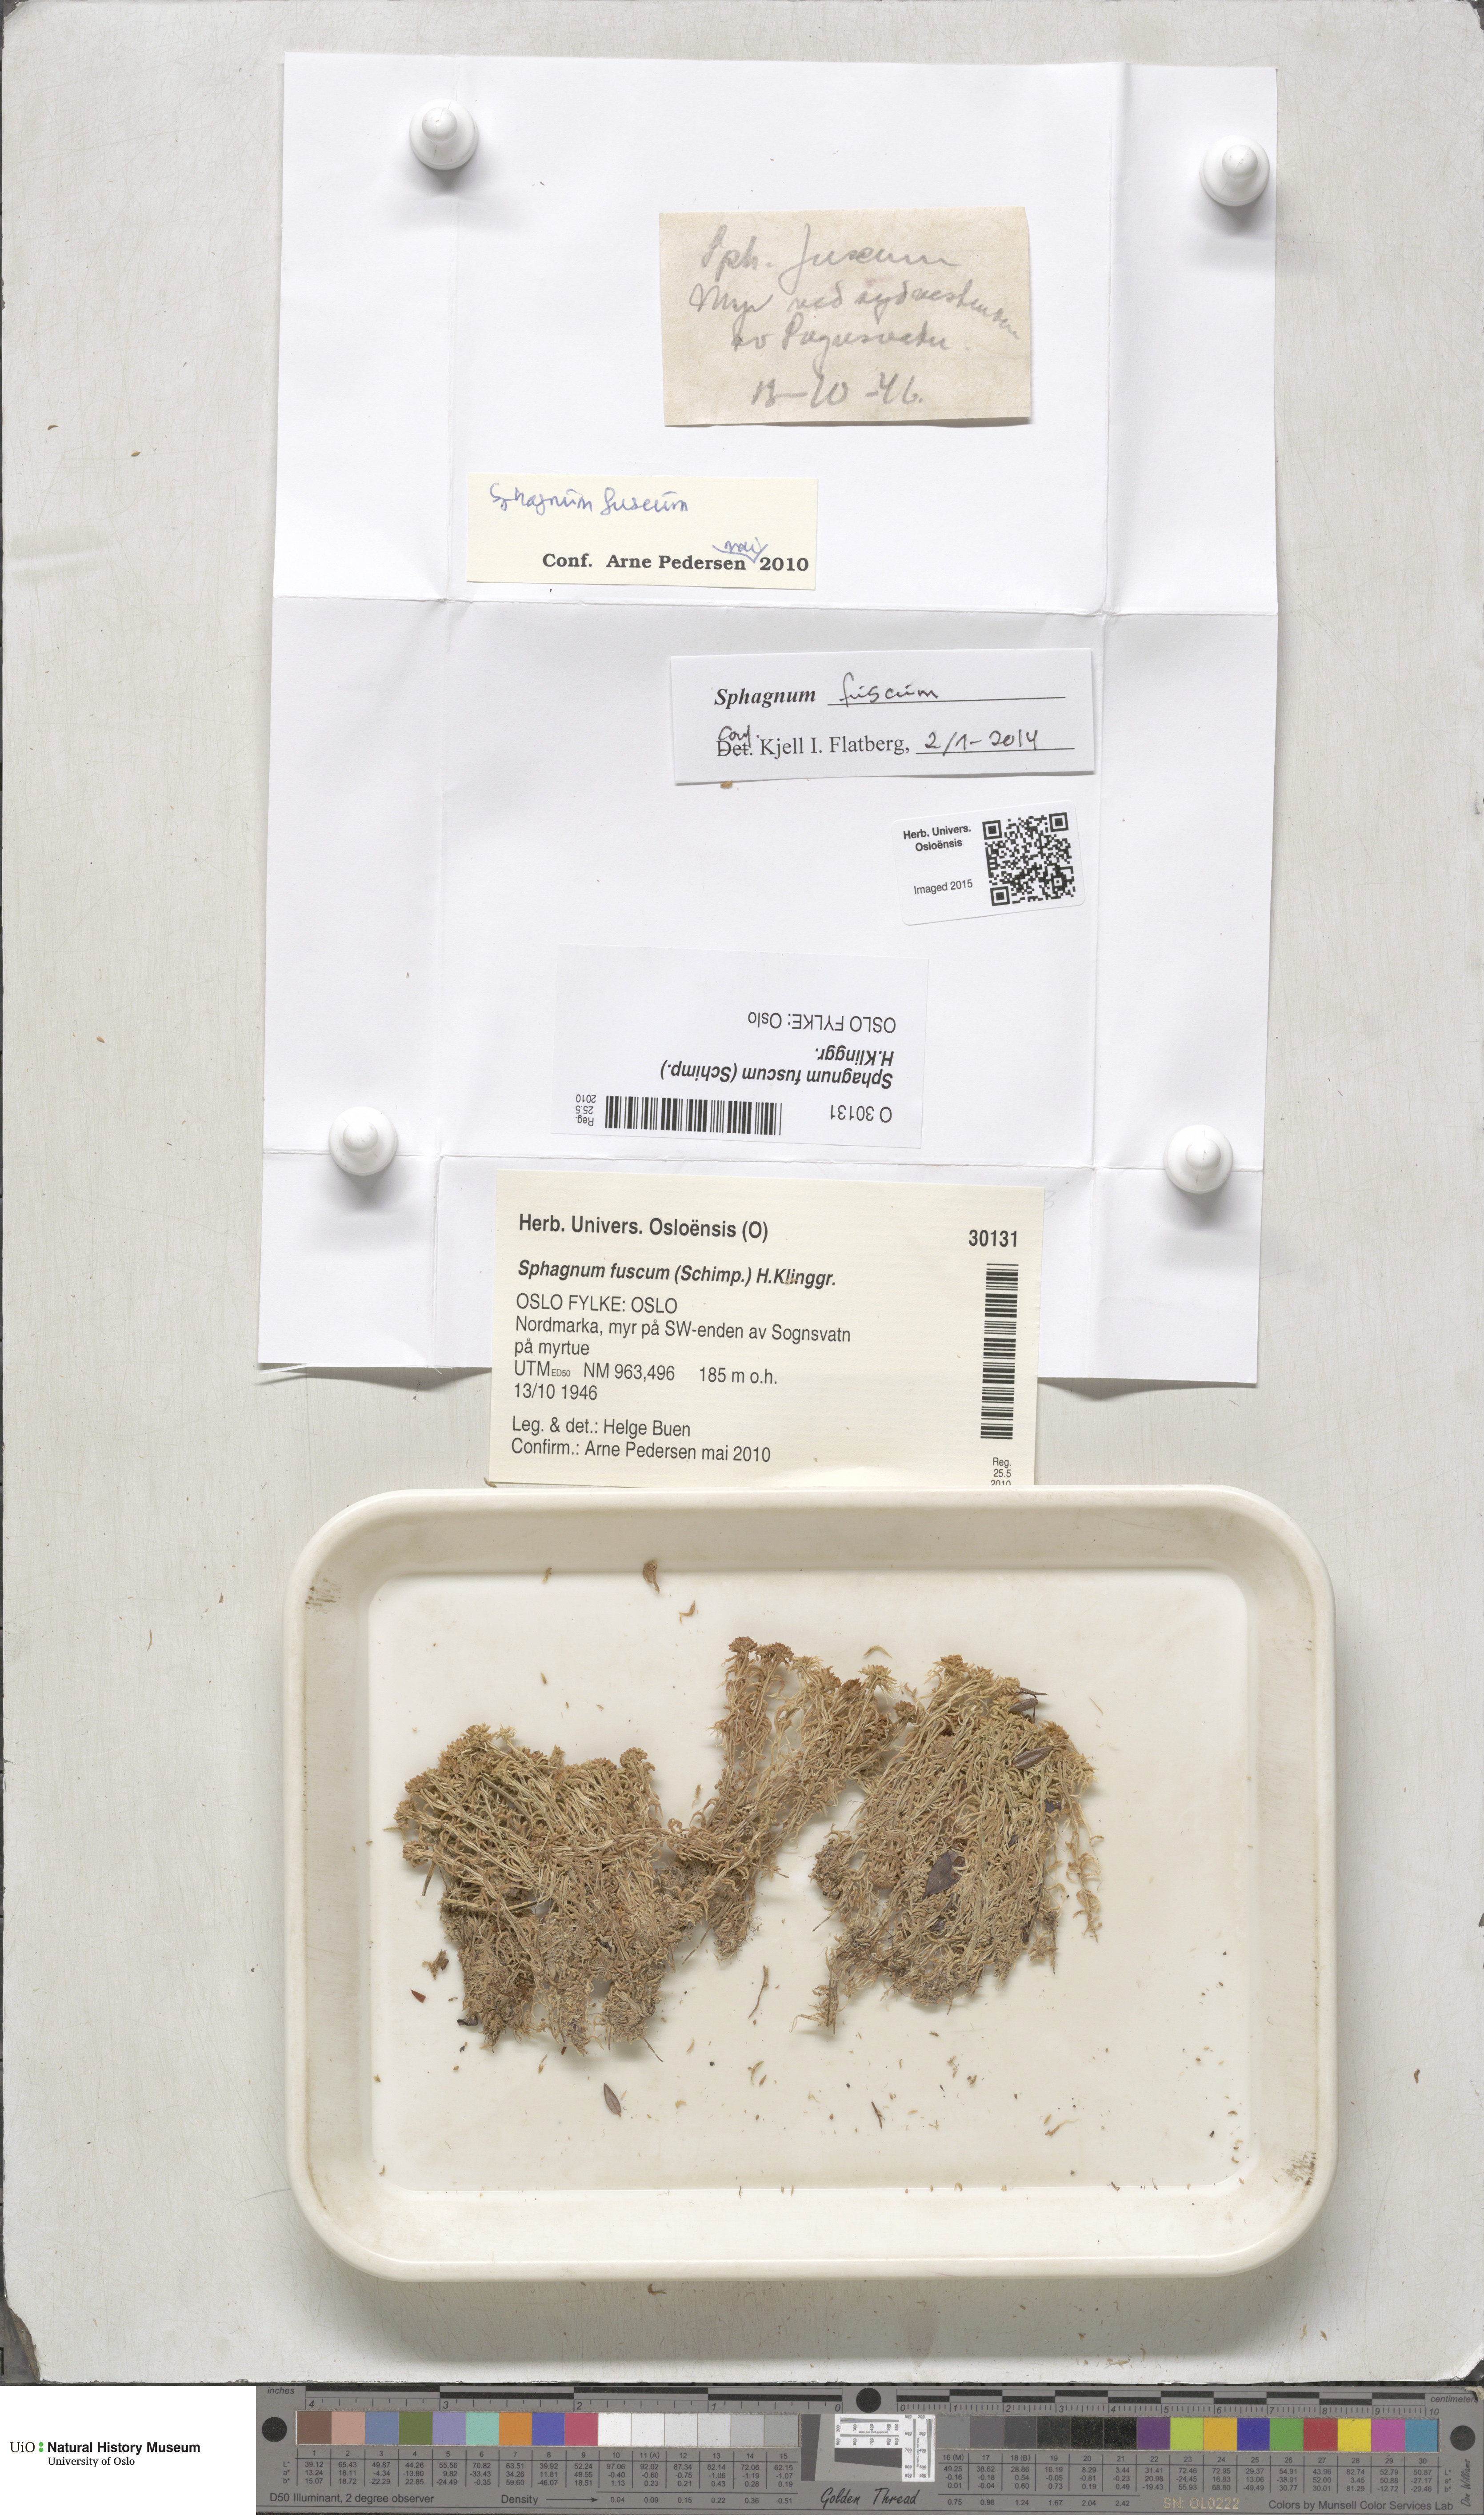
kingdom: Plantae
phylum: Bryophyta
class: Sphagnopsida
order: Sphagnales
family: Sphagnaceae
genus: Sphagnum
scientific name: Sphagnum fuscum
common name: Brown peat moss
